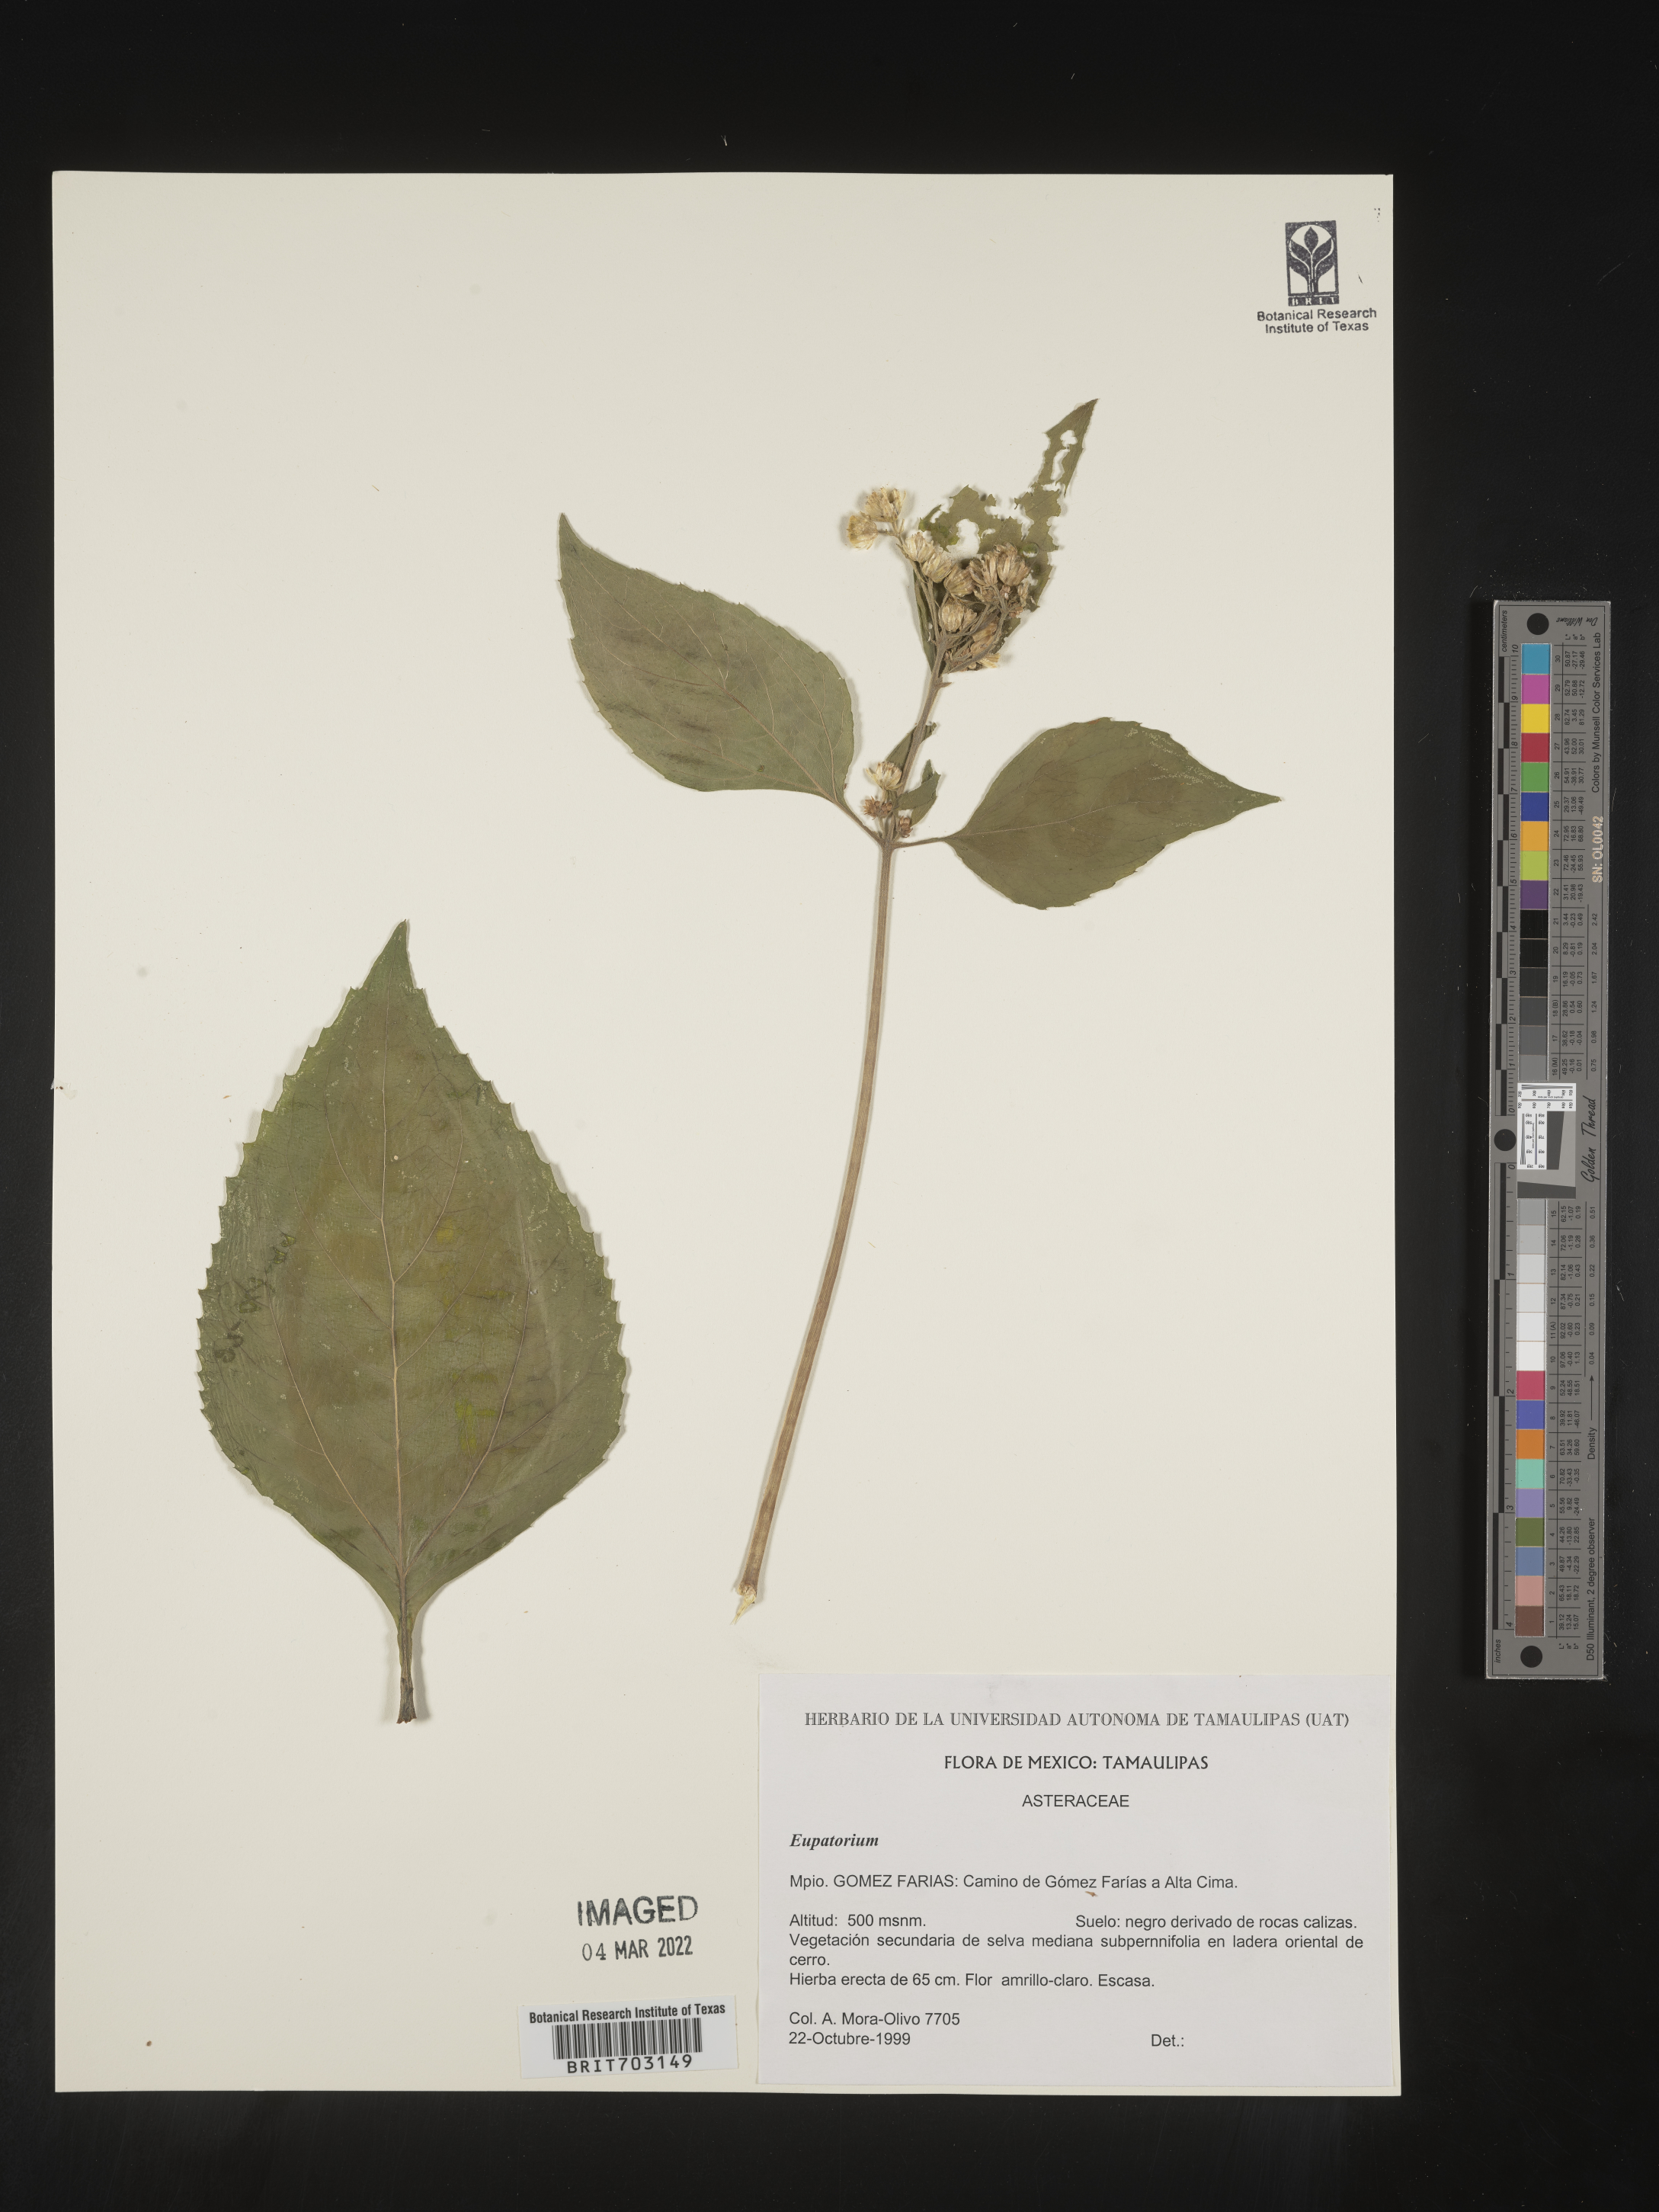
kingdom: Plantae
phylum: Tracheophyta
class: Magnoliopsida
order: Asterales
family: Asteraceae
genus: Eupatorium
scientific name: Eupatorium
